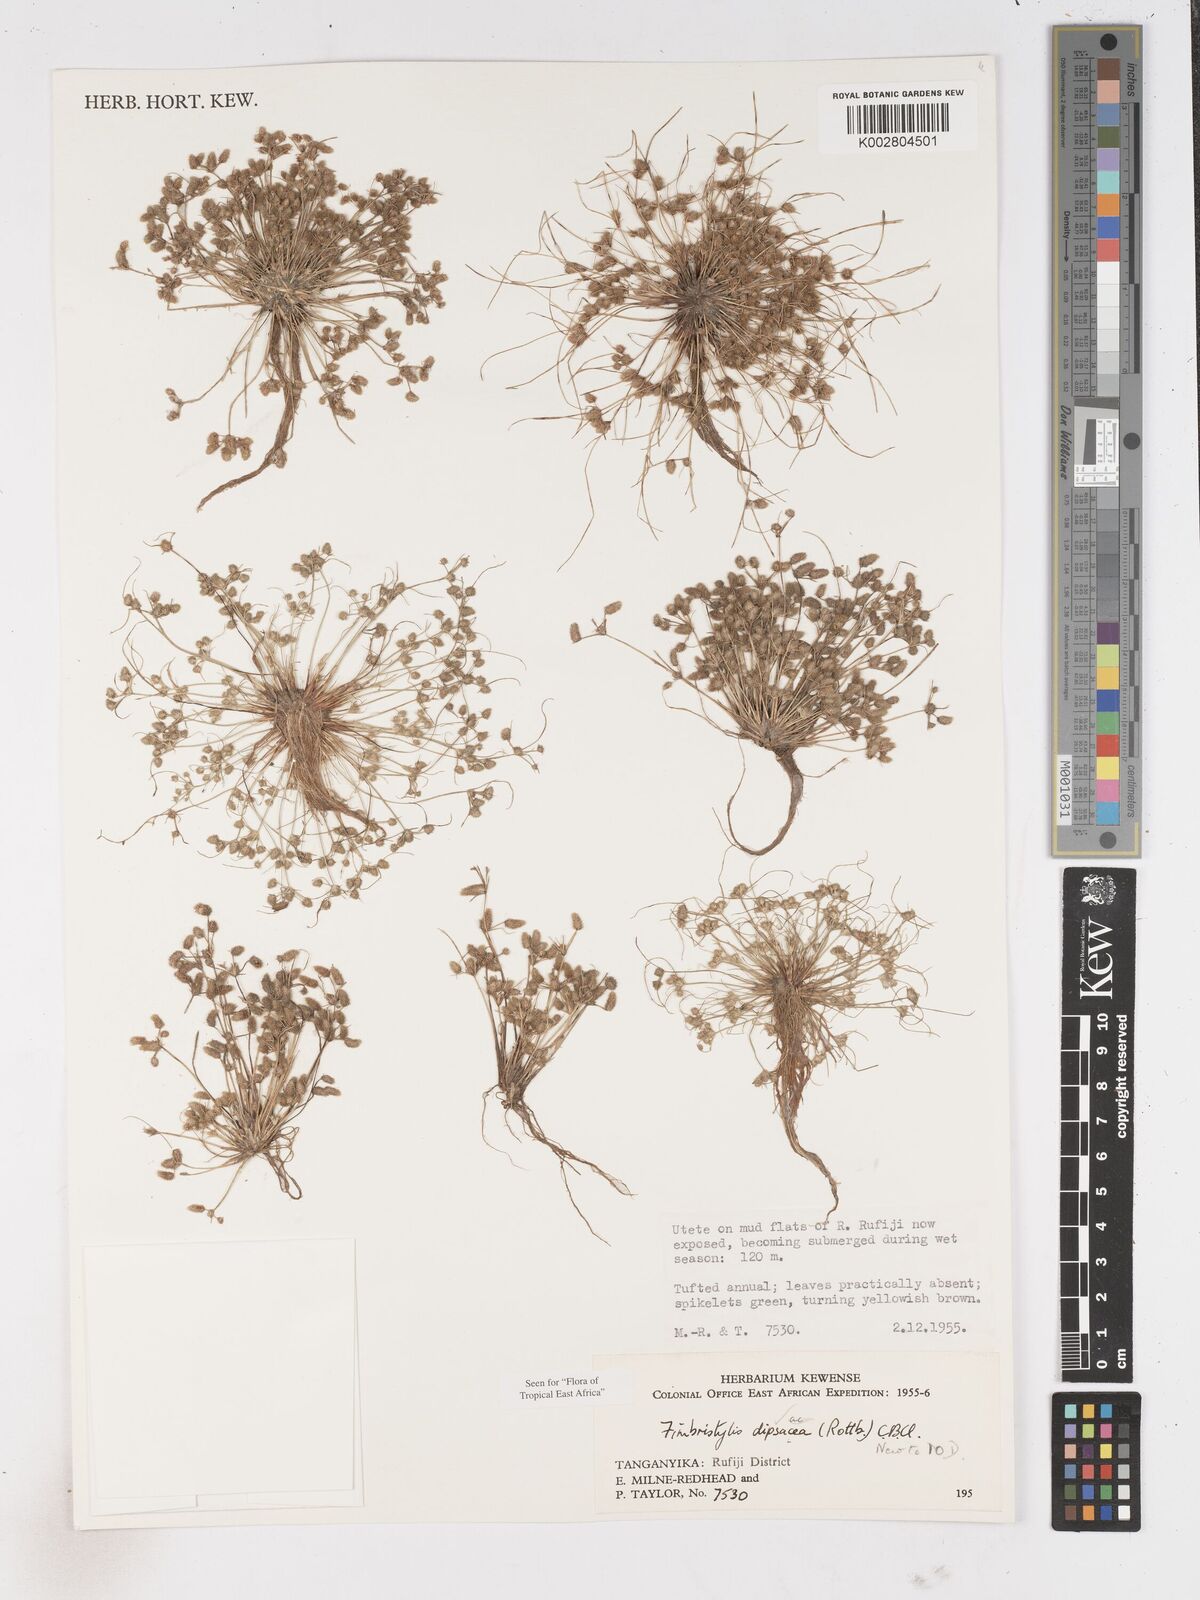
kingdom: Plantae
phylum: Tracheophyta
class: Liliopsida
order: Poales
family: Cyperaceae
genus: Fimbristylis
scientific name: Fimbristylis dipsacea
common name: Harper's fimbristylis
